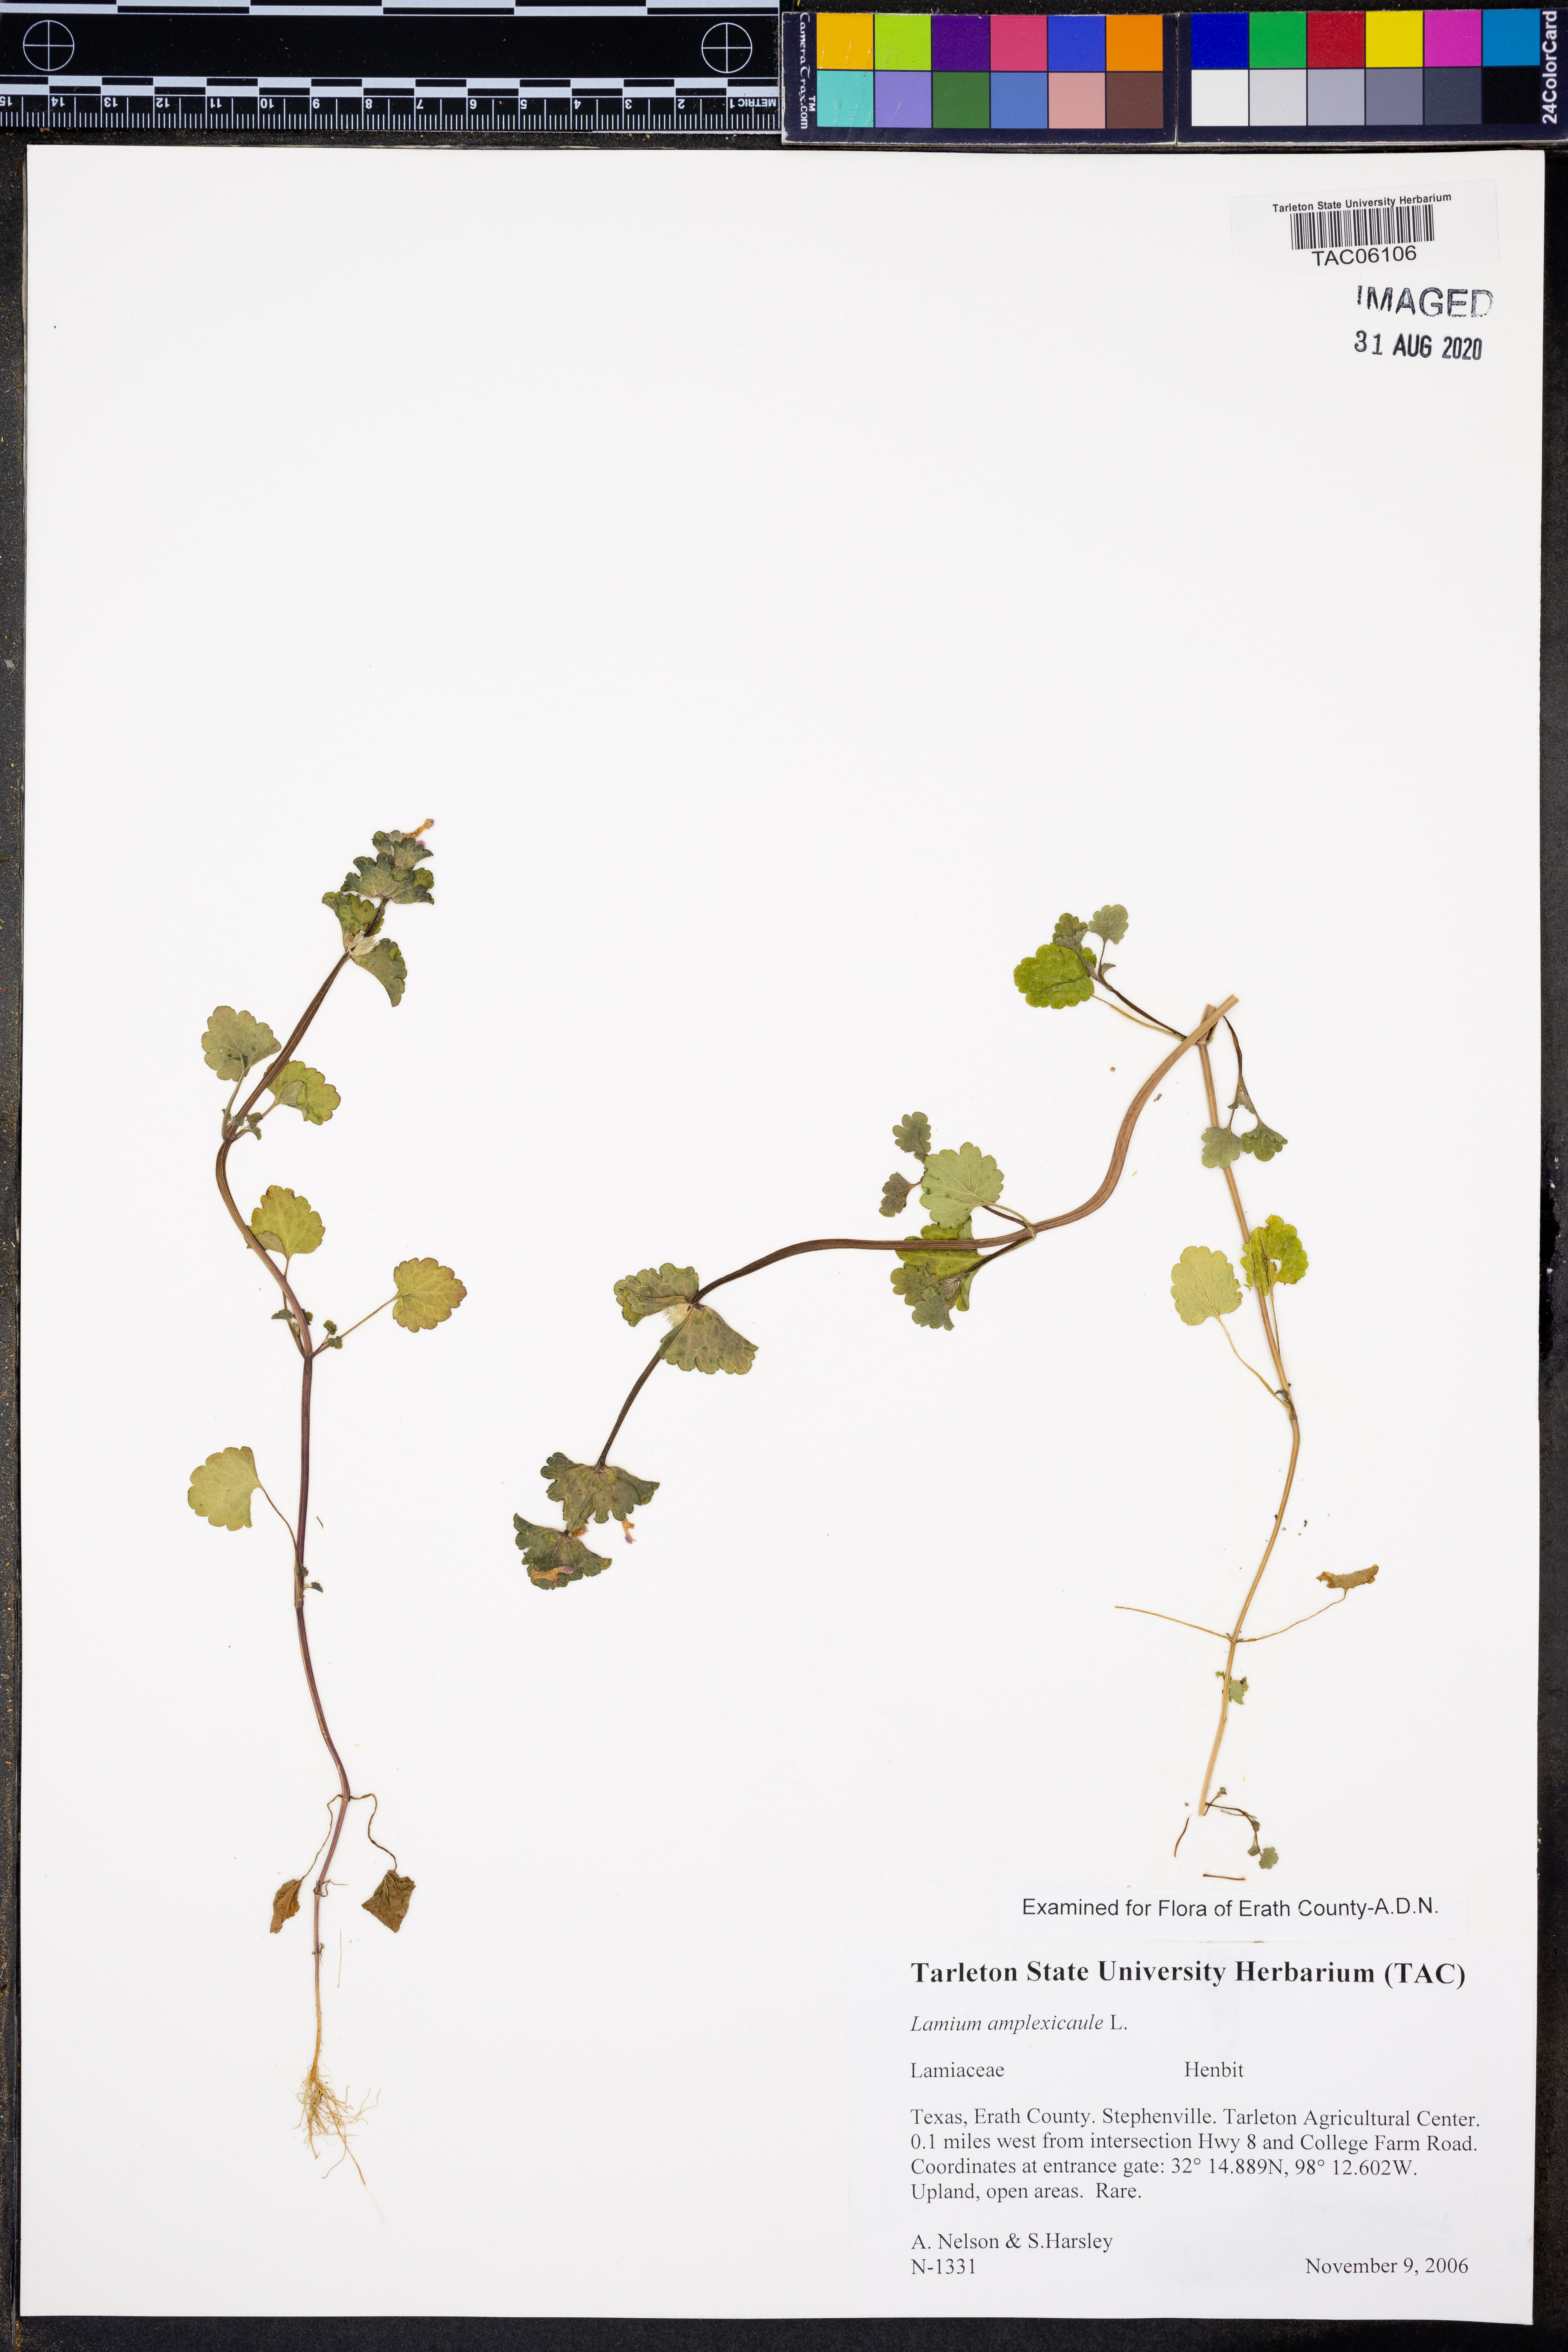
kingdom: Plantae
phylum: Tracheophyta
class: Magnoliopsida
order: Lamiales
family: Lamiaceae
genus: Lamium
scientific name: Lamium amplexicaule
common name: Henbit dead-nettle
